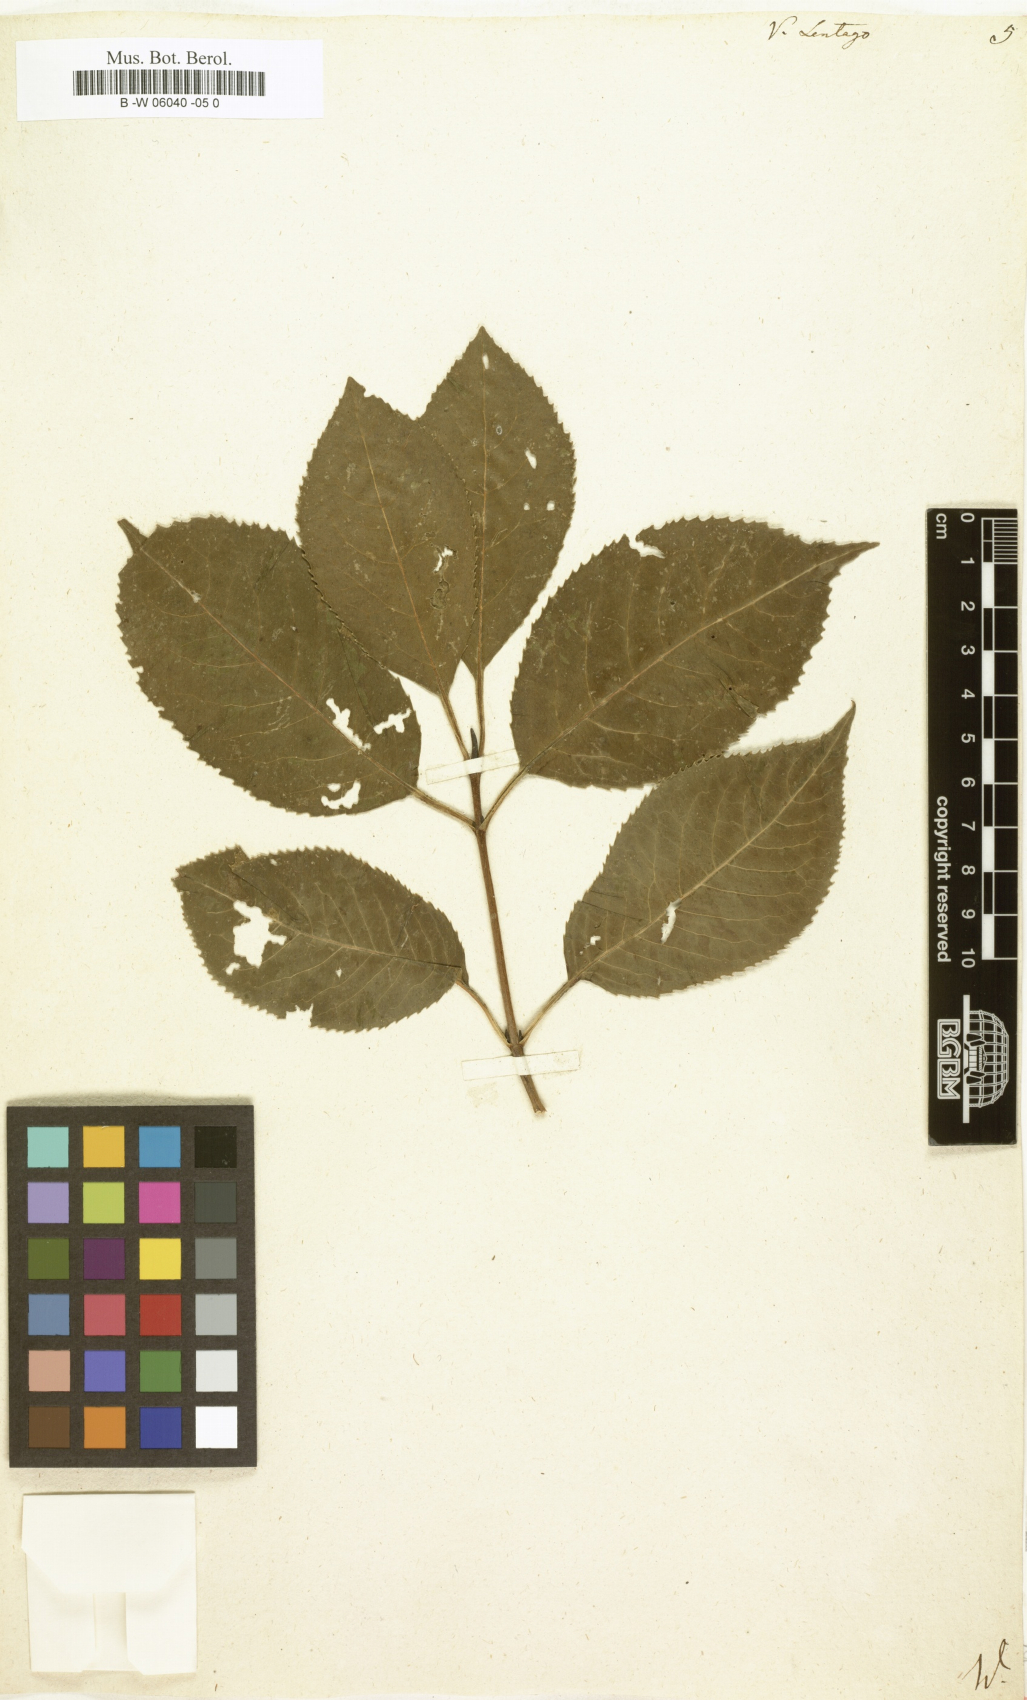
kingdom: Plantae
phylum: Tracheophyta
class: Magnoliopsida
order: Dipsacales
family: Viburnaceae
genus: Viburnum
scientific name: Viburnum lentago
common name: Black haw
